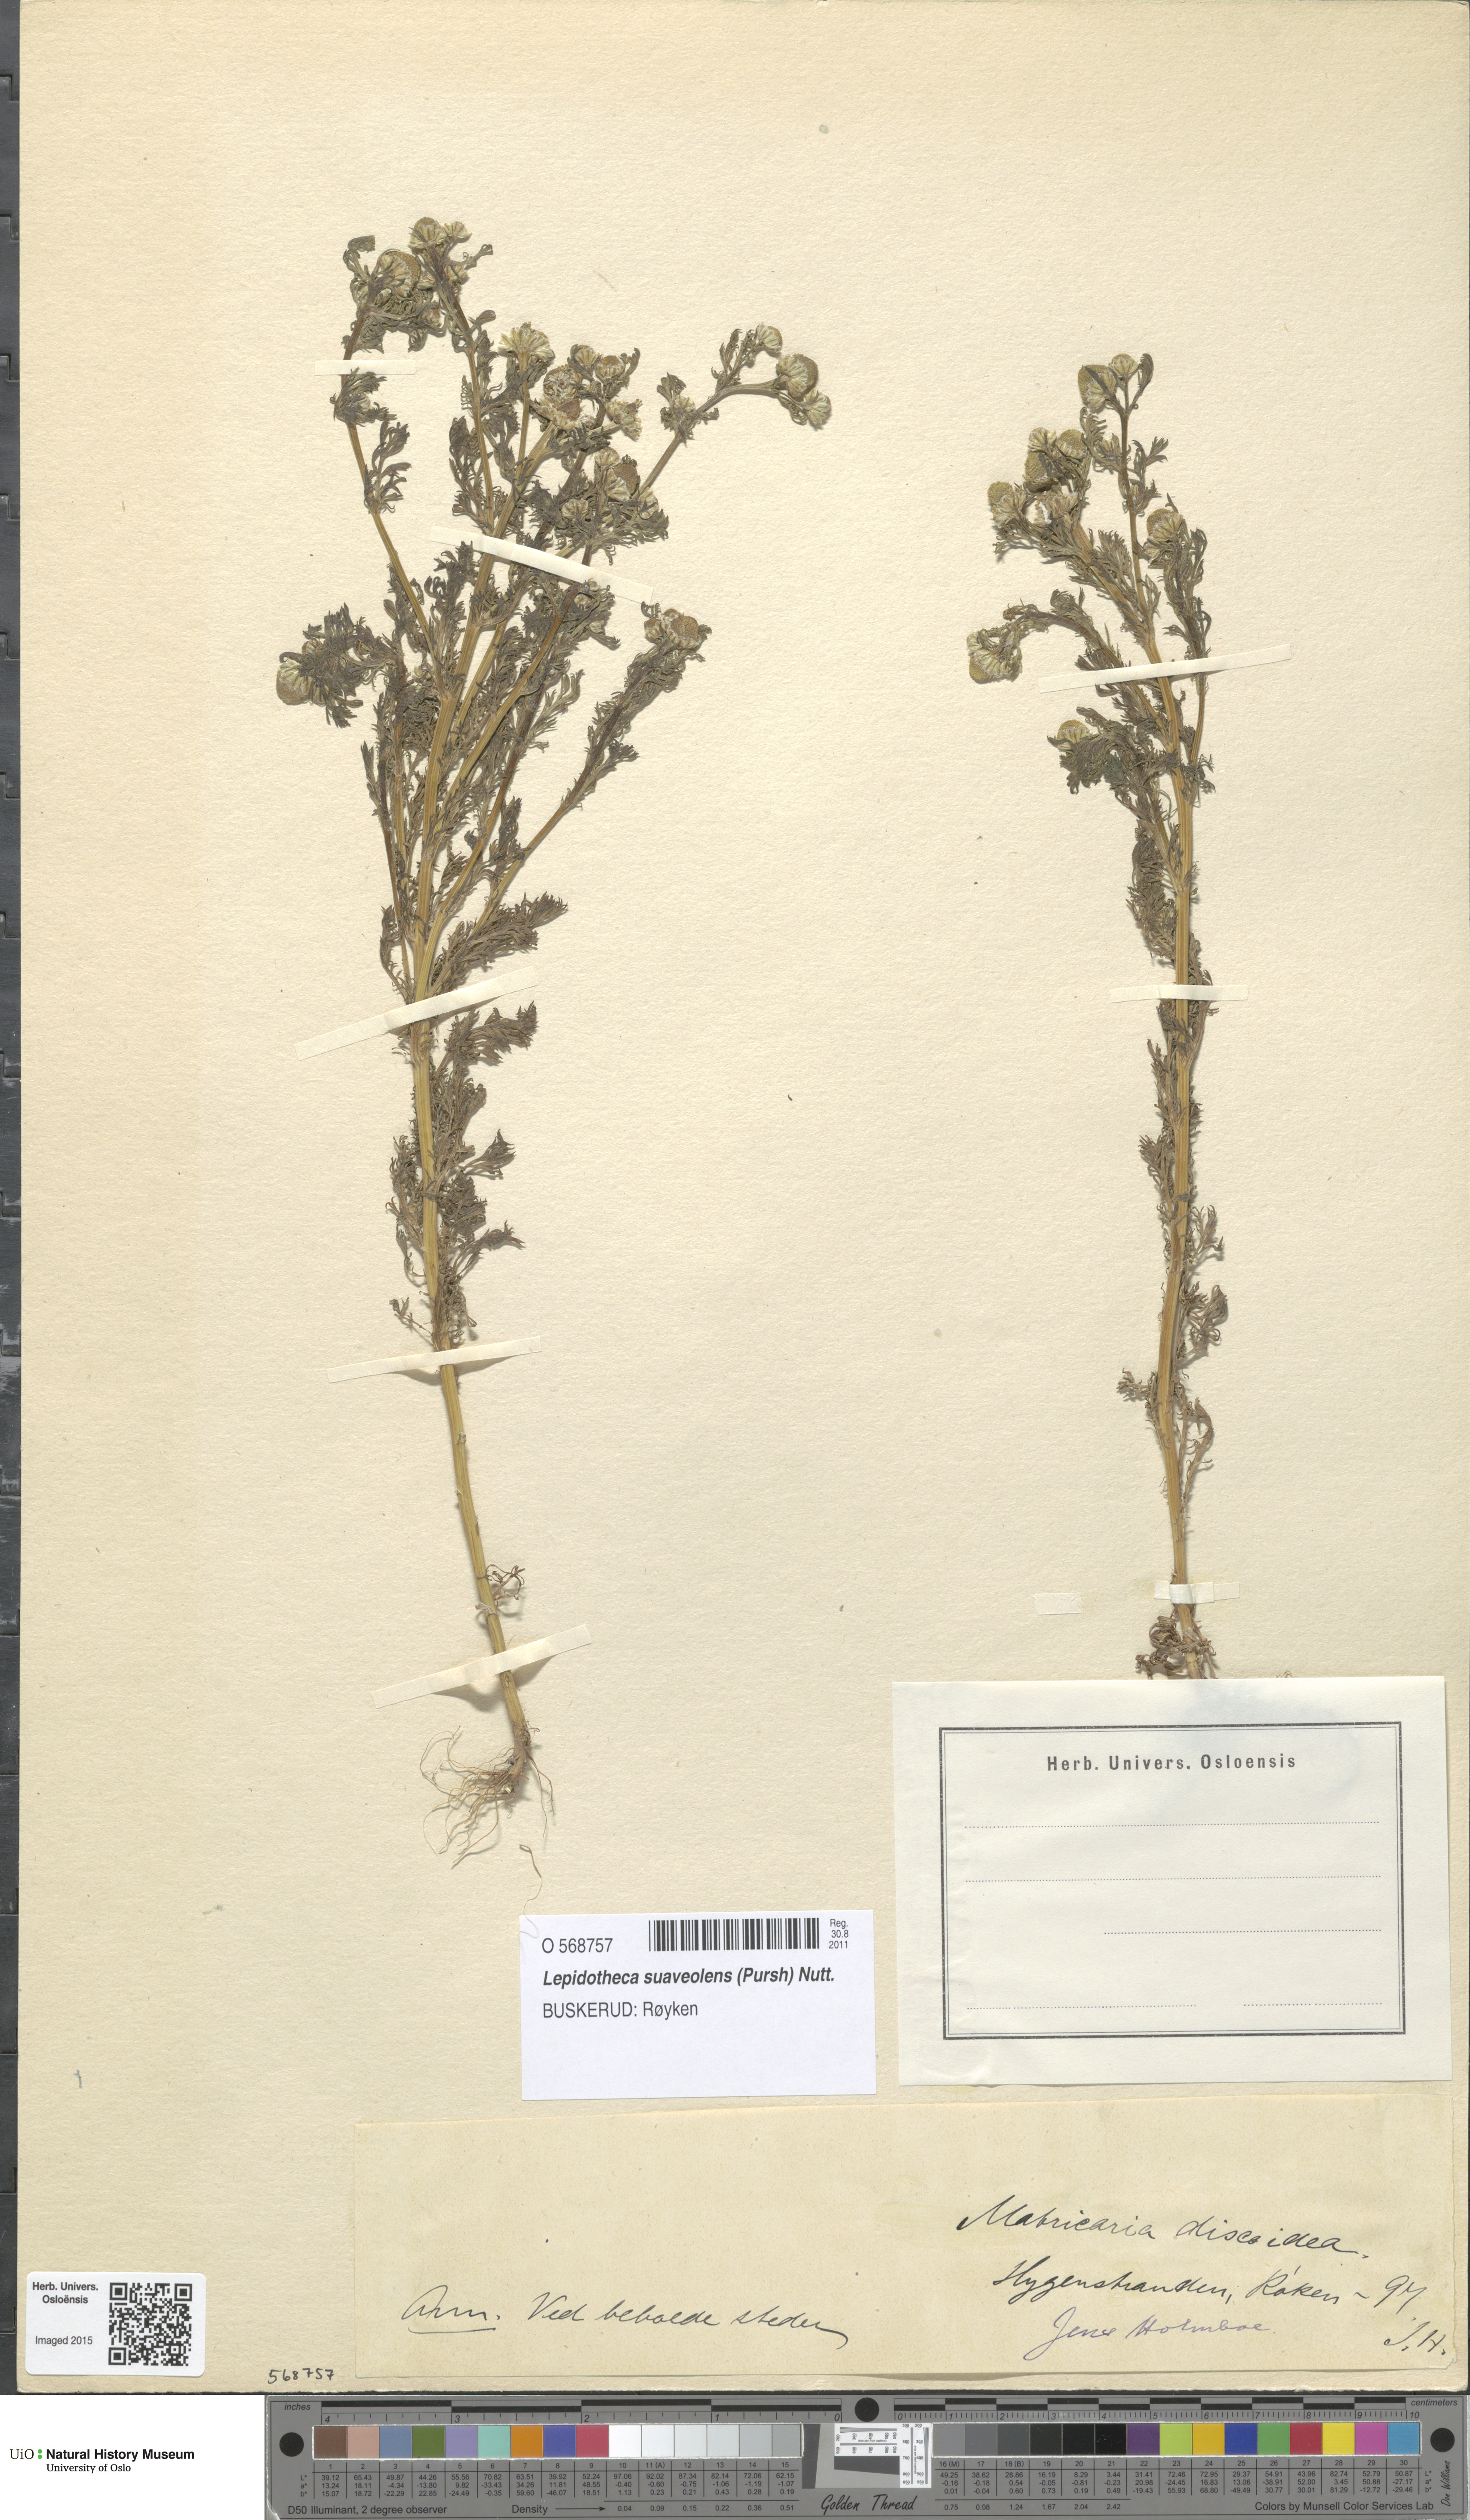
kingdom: Plantae
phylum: Tracheophyta
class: Magnoliopsida
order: Asterales
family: Asteraceae
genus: Matricaria
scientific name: Matricaria discoidea
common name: Disc mayweed
